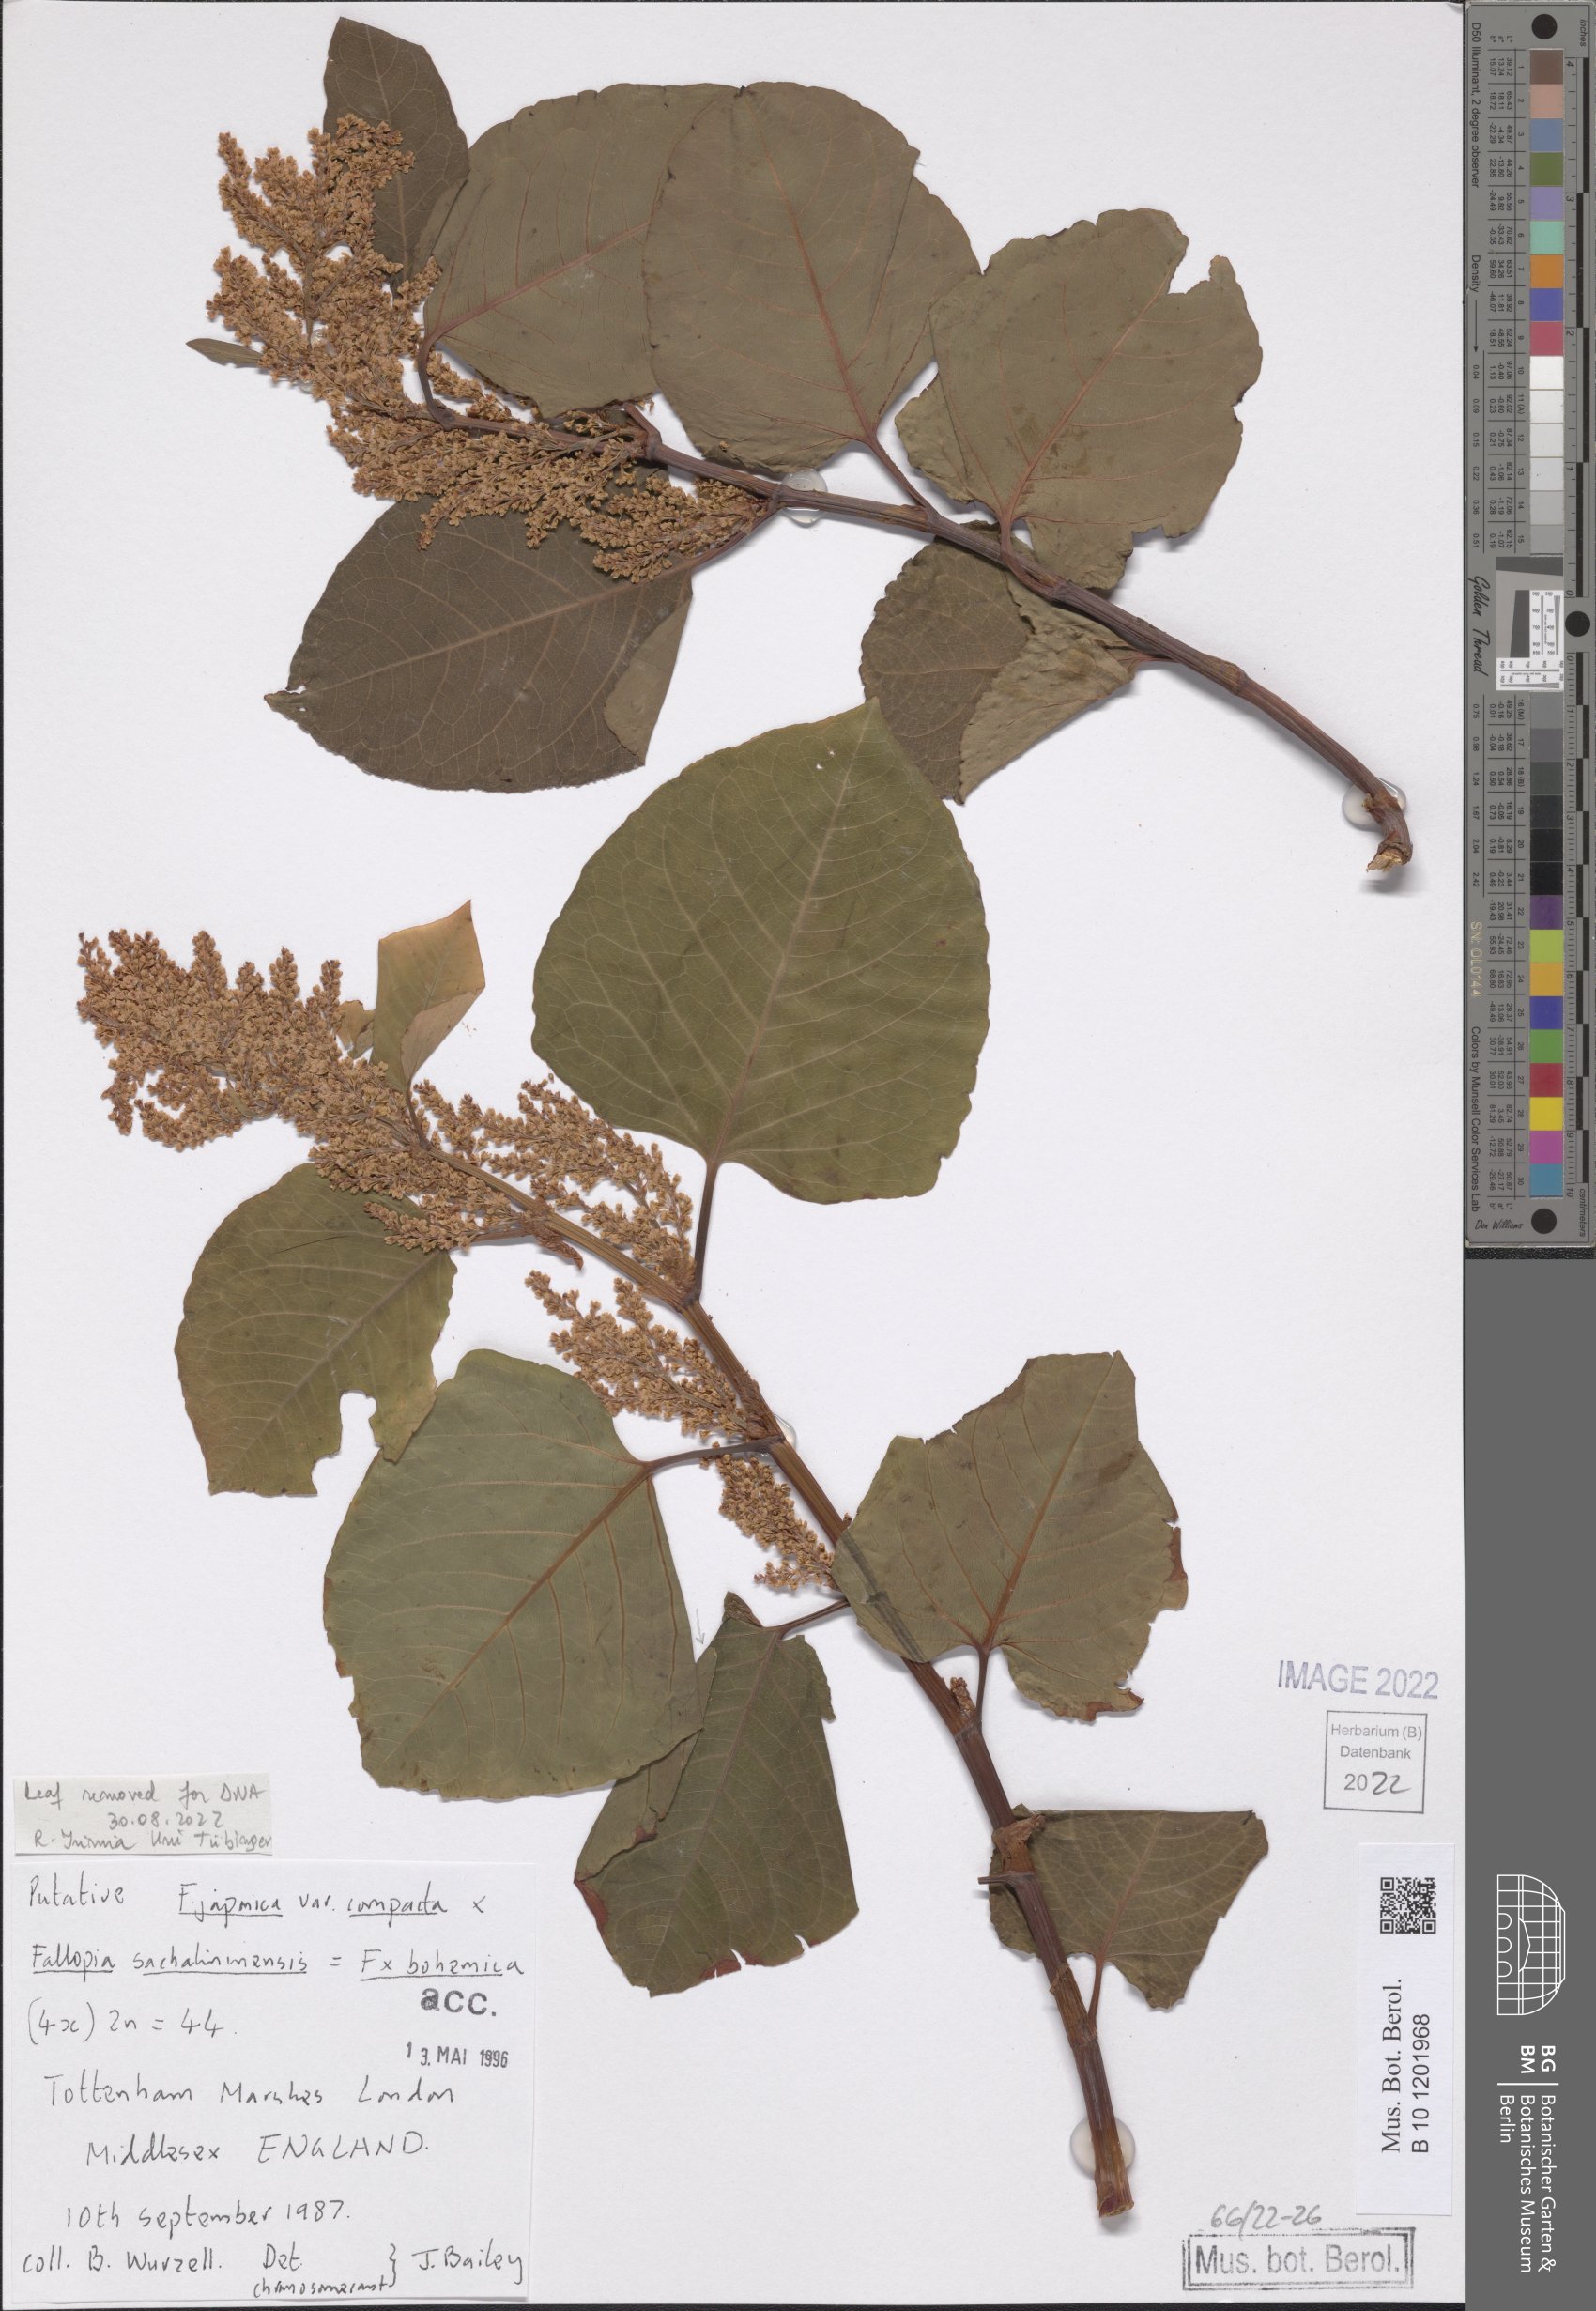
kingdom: Plantae
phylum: Tracheophyta
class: Magnoliopsida
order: Caryophyllales
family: Polygonaceae
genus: Reynoutria
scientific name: Reynoutria japonica
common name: Japanese knotweed
